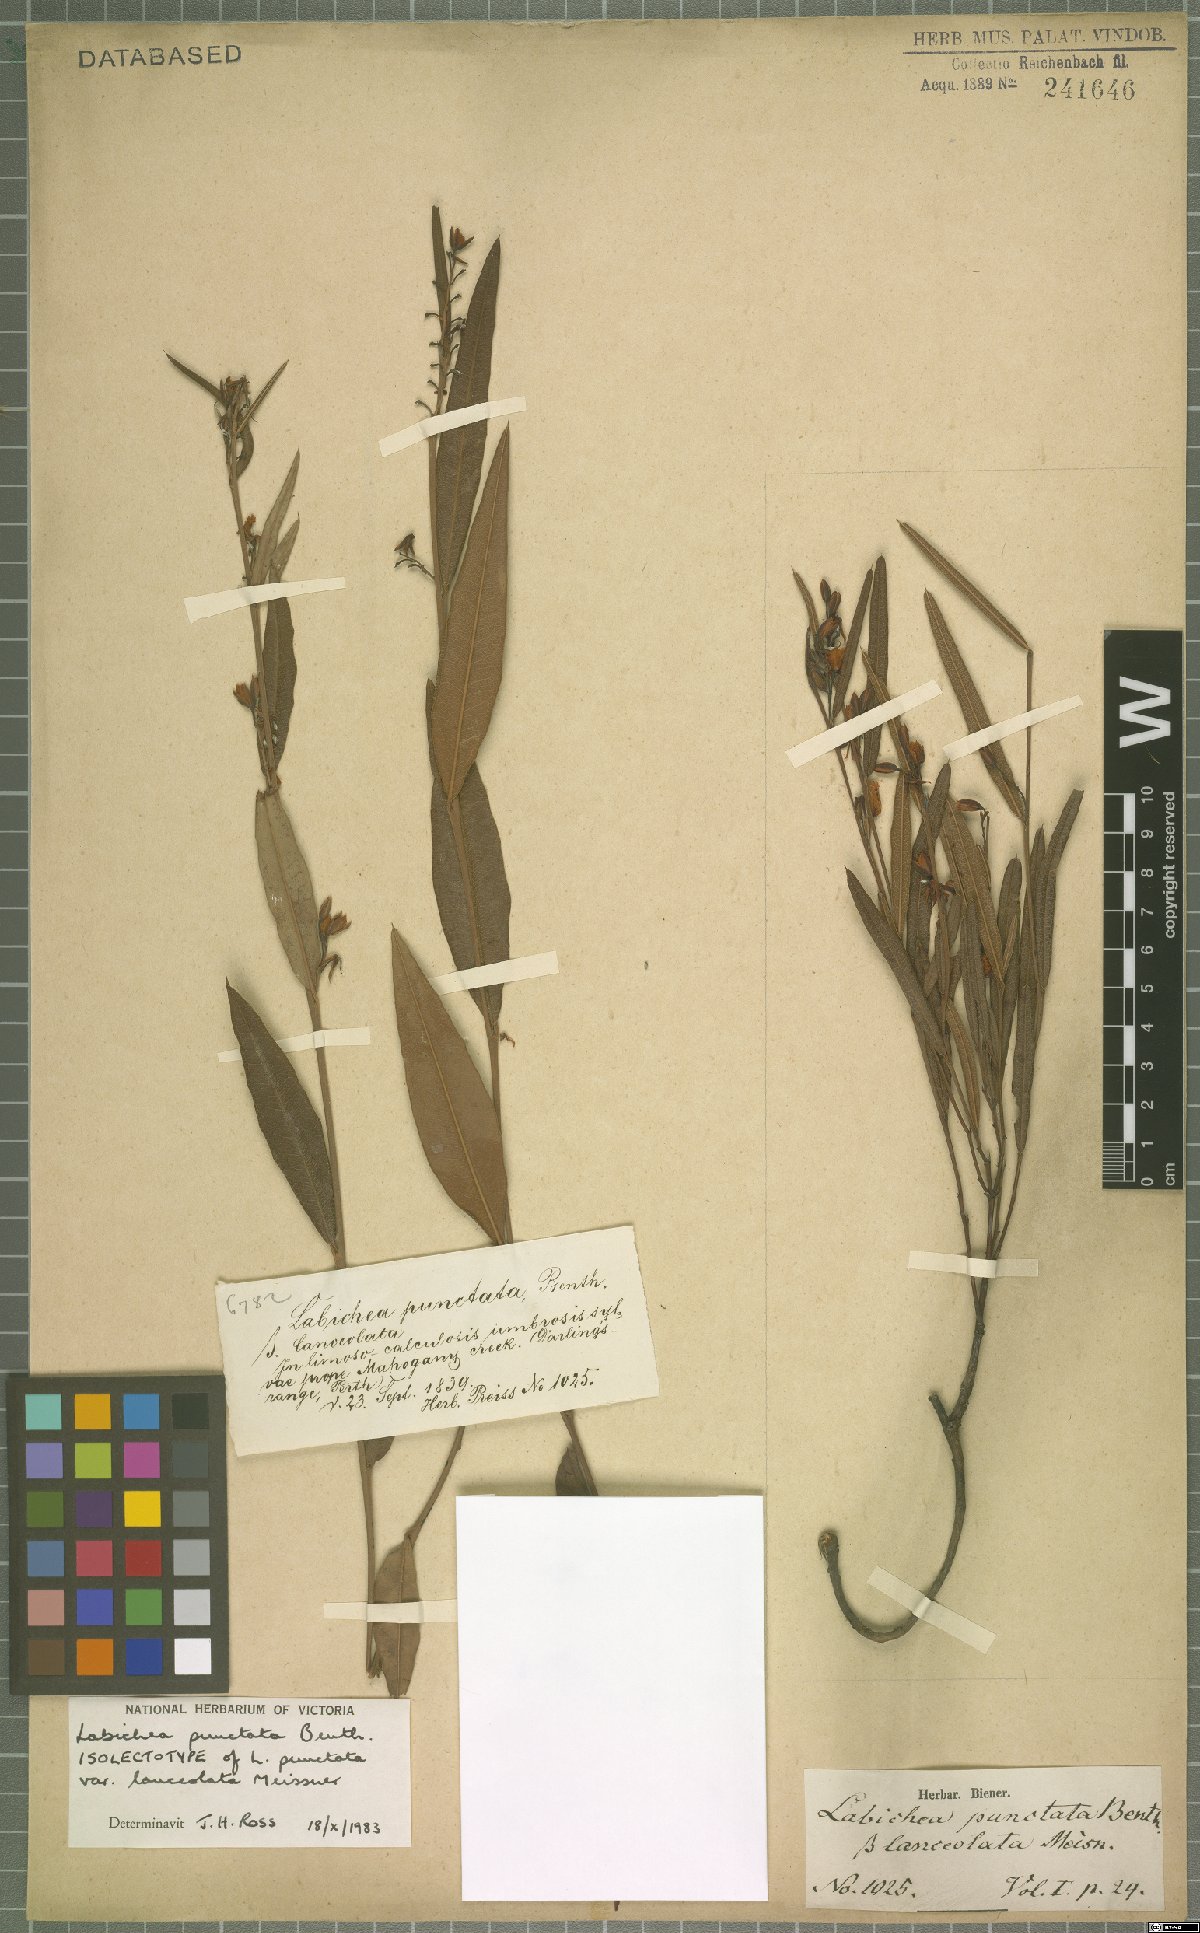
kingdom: Plantae
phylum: Tracheophyta
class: Magnoliopsida
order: Fabales
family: Fabaceae
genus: Labichea
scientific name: Labichea punctata
